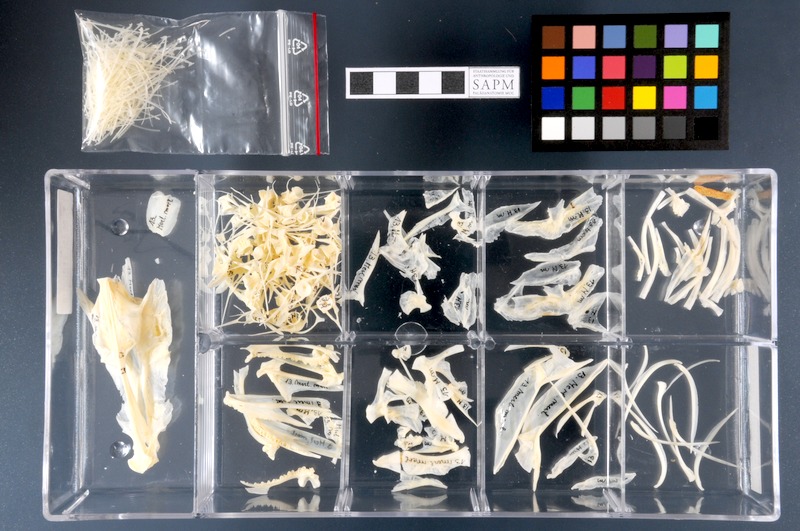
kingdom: Animalia
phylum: Chordata
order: Gadiformes
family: Gadidae
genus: Merlangius
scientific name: Merlangius merlangus
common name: Whiting
